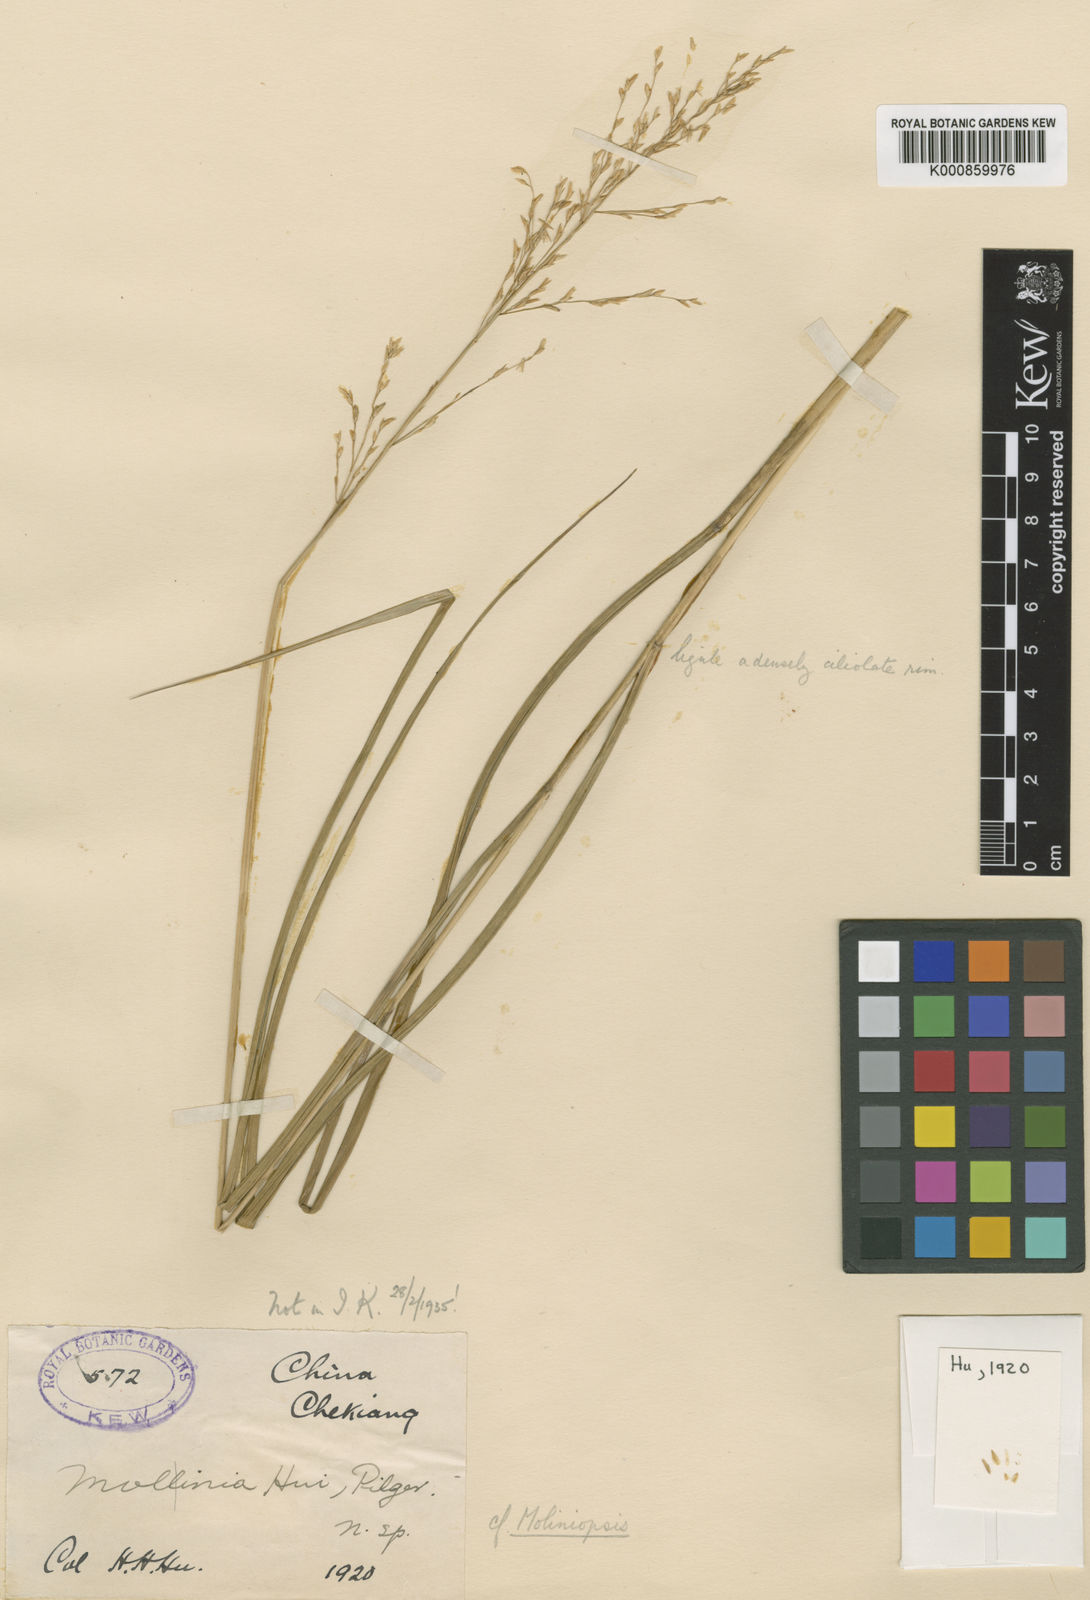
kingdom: Plantae
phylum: Tracheophyta
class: Liliopsida
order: Poales
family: Poaceae
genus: Moliniopsis
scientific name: Moliniopsis japonica
